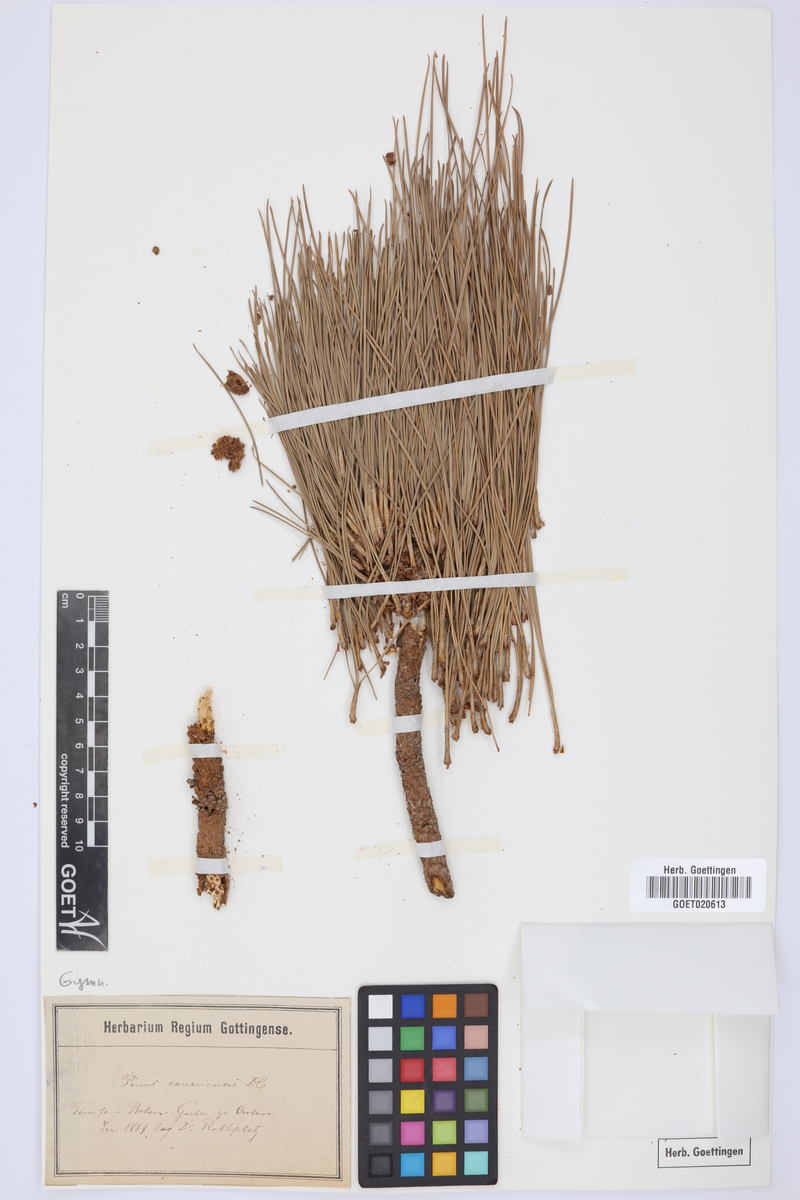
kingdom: Plantae
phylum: Tracheophyta
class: Pinopsida
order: Pinales
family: Pinaceae
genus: Pinus
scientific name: Pinus canariensis
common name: Canary islands pine
